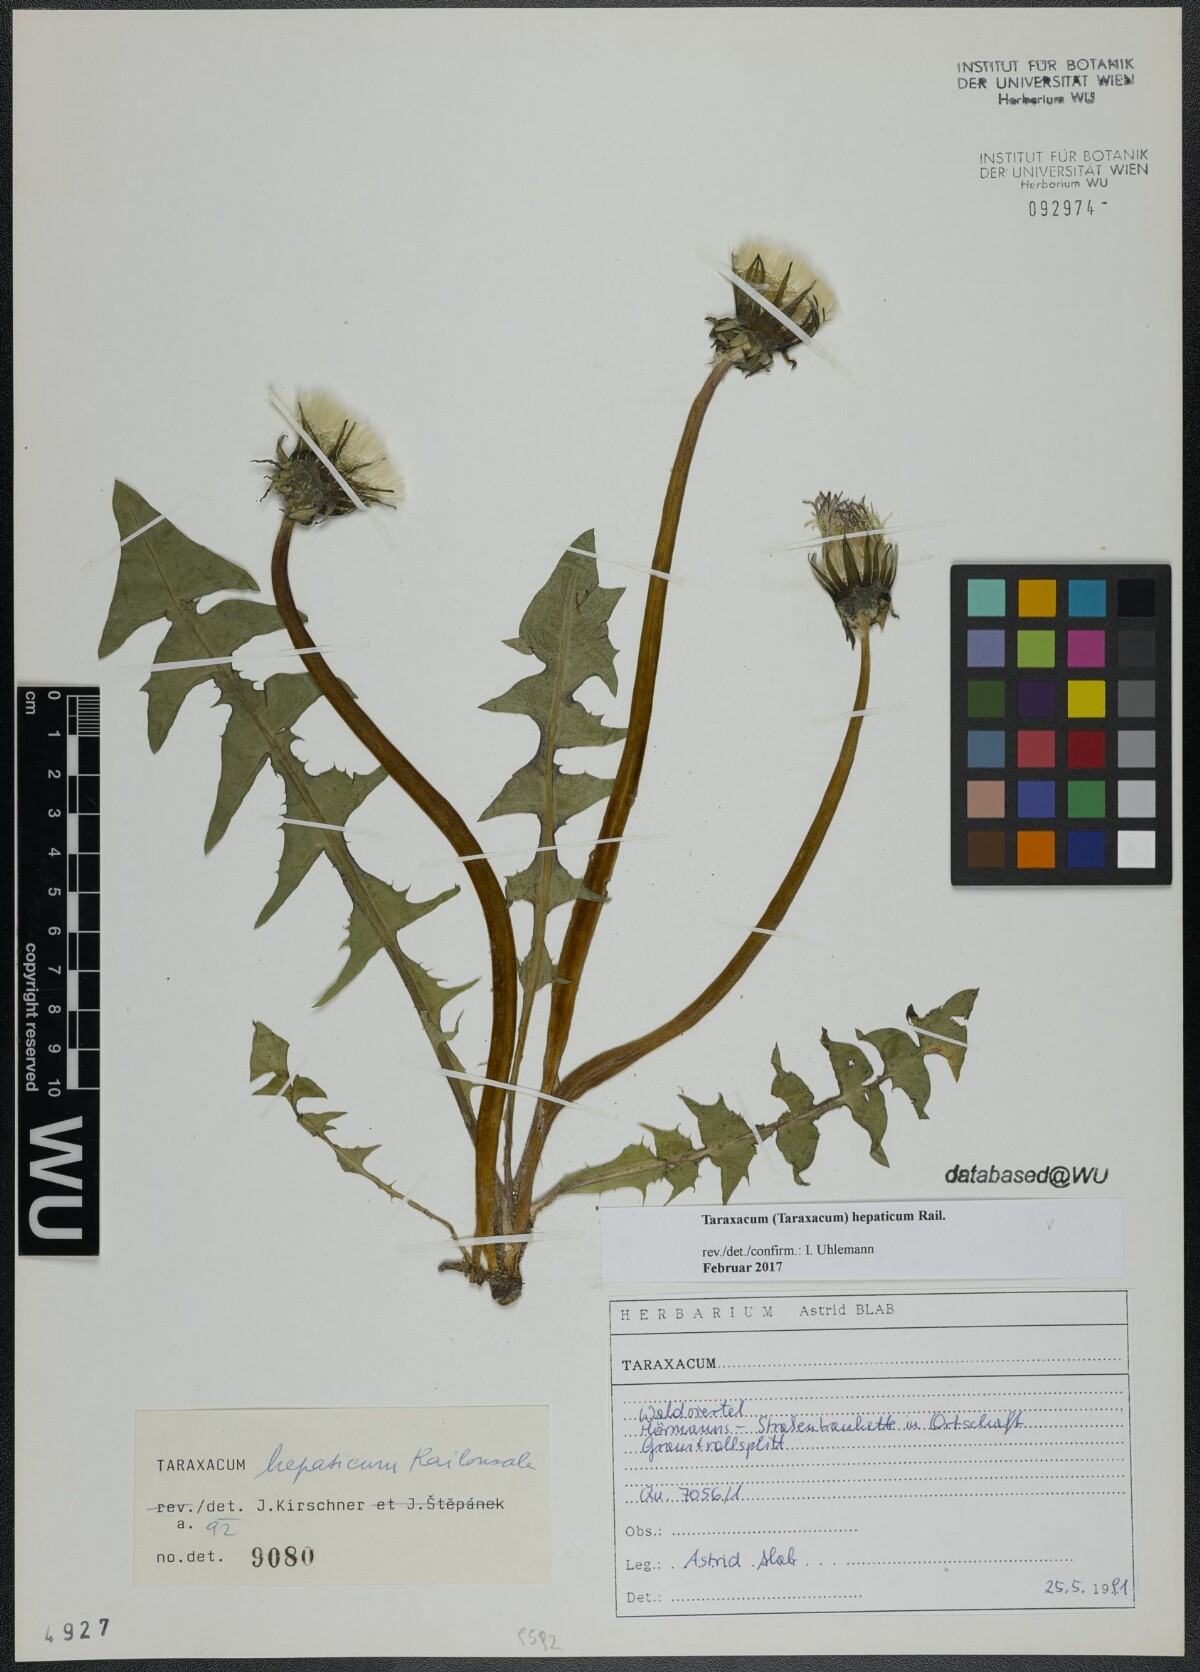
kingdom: Plantae
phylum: Tracheophyta
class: Magnoliopsida
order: Asterales
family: Asteraceae
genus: Taraxacum
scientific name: Taraxacum hepaticum
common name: Regular-lobed dandelion
